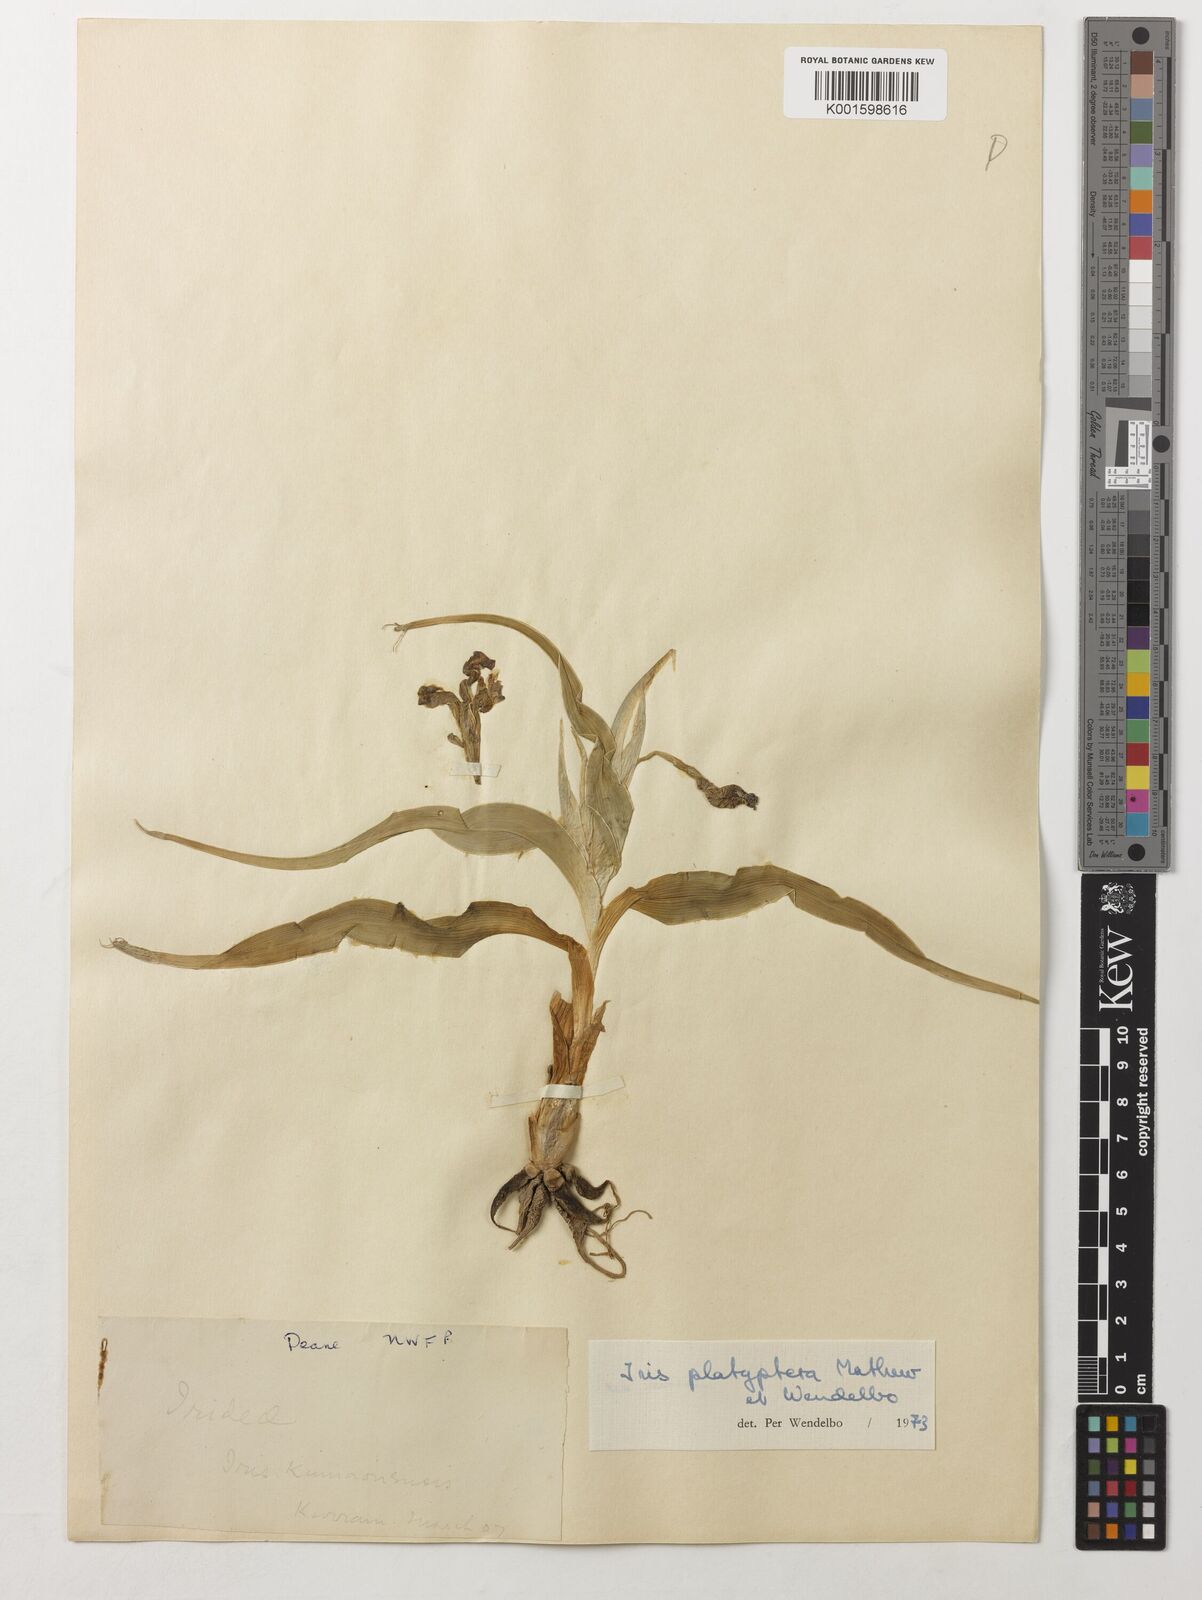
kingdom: Plantae
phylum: Tracheophyta
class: Liliopsida
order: Asparagales
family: Iridaceae
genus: Iris
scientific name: Iris platyptera
